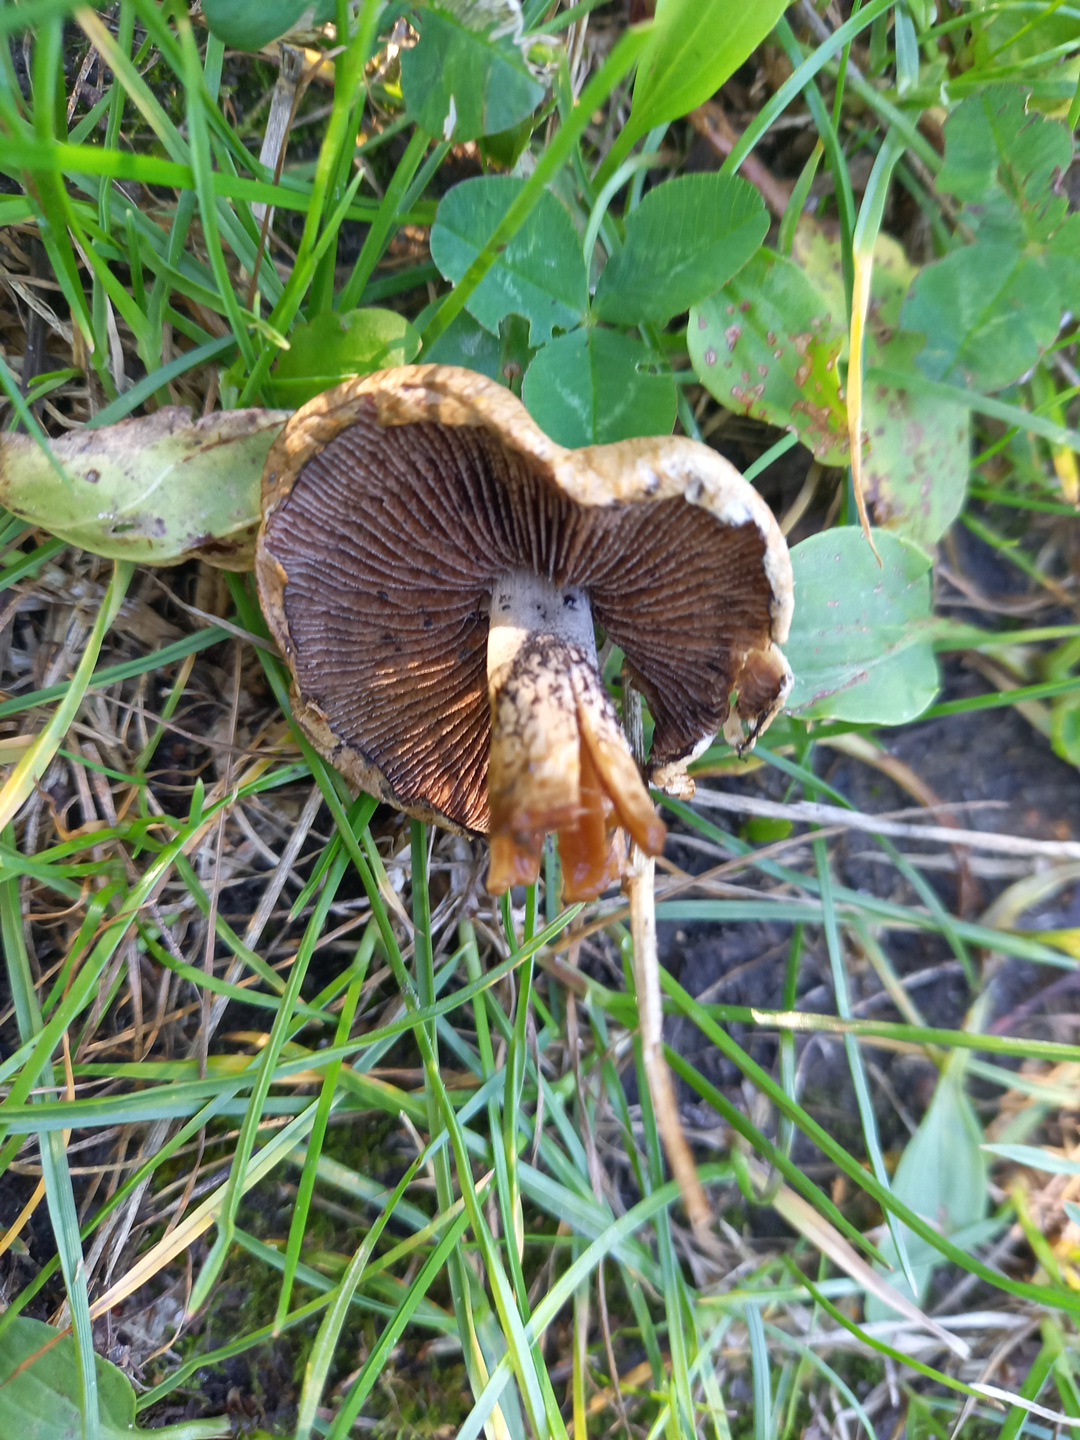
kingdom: Fungi
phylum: Basidiomycota
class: Agaricomycetes
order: Agaricales
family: Psathyrellaceae
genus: Lacrymaria
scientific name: Lacrymaria lacrymabunda
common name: grædende mørkhat
